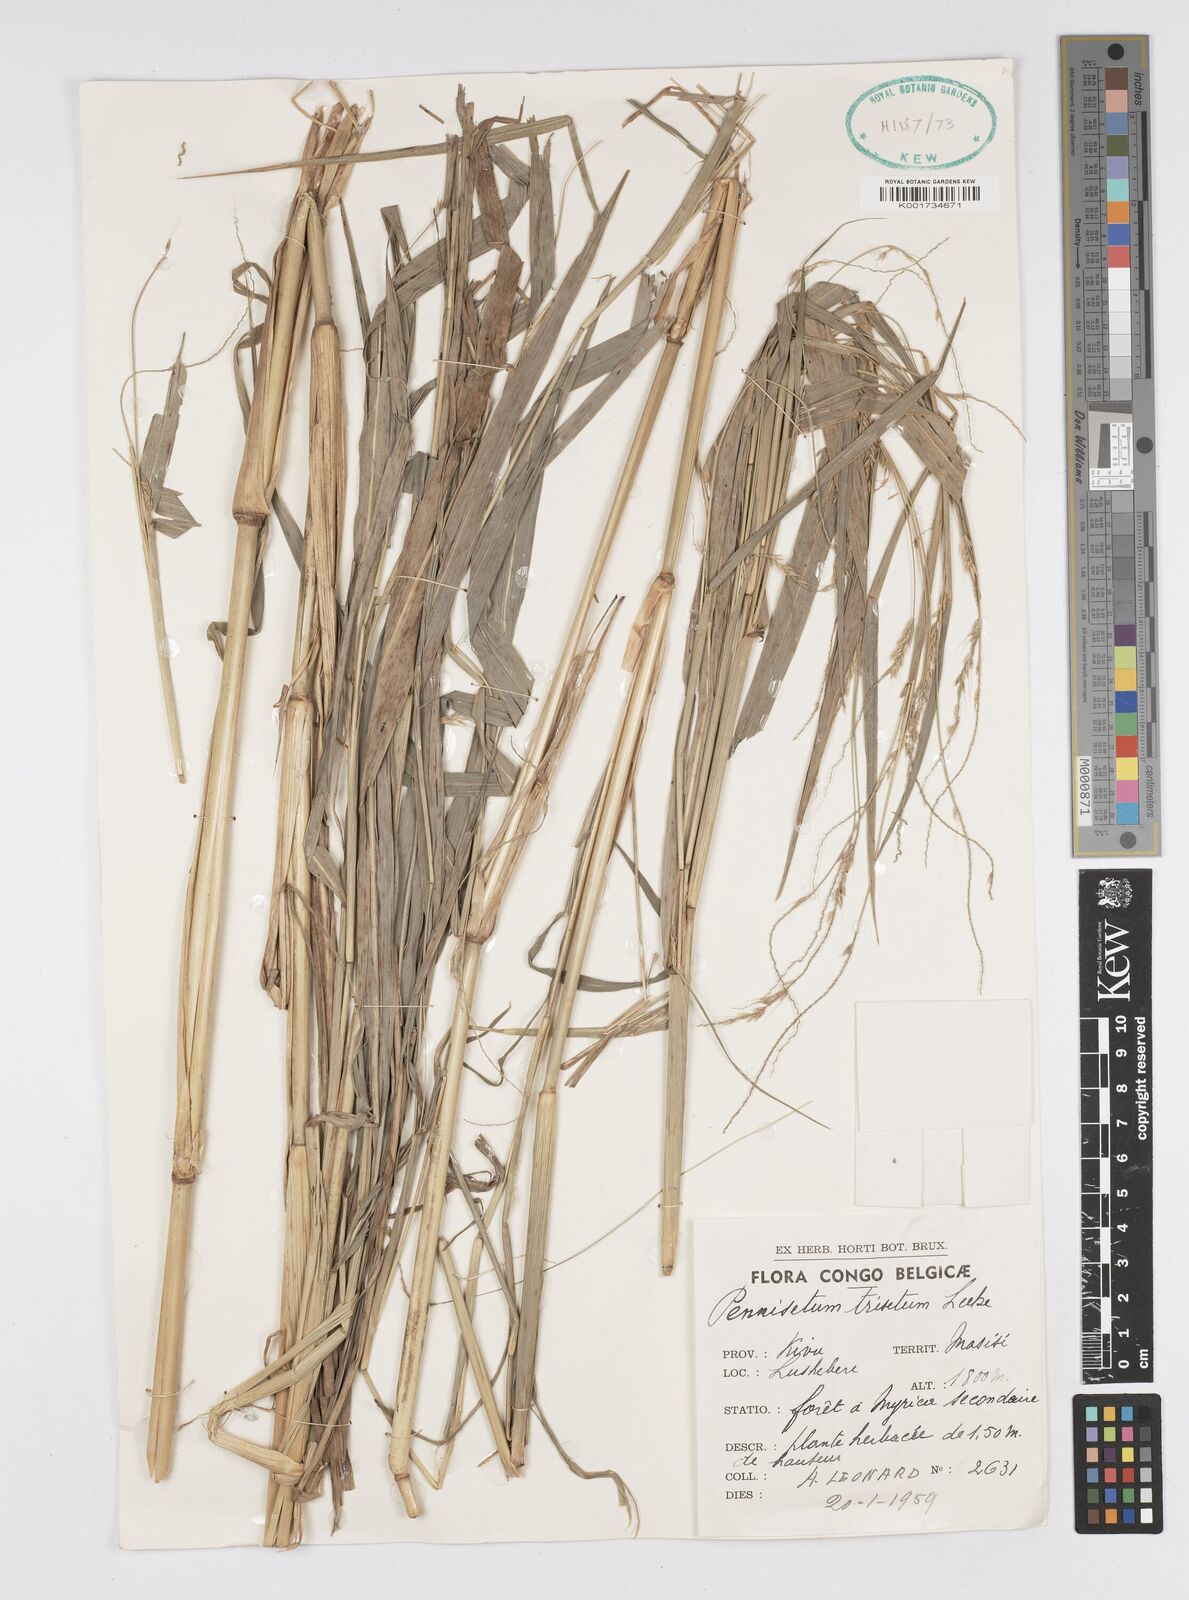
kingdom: Plantae
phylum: Tracheophyta
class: Liliopsida
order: Poales
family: Poaceae
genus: Cenchrus
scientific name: Cenchrus trisetus
